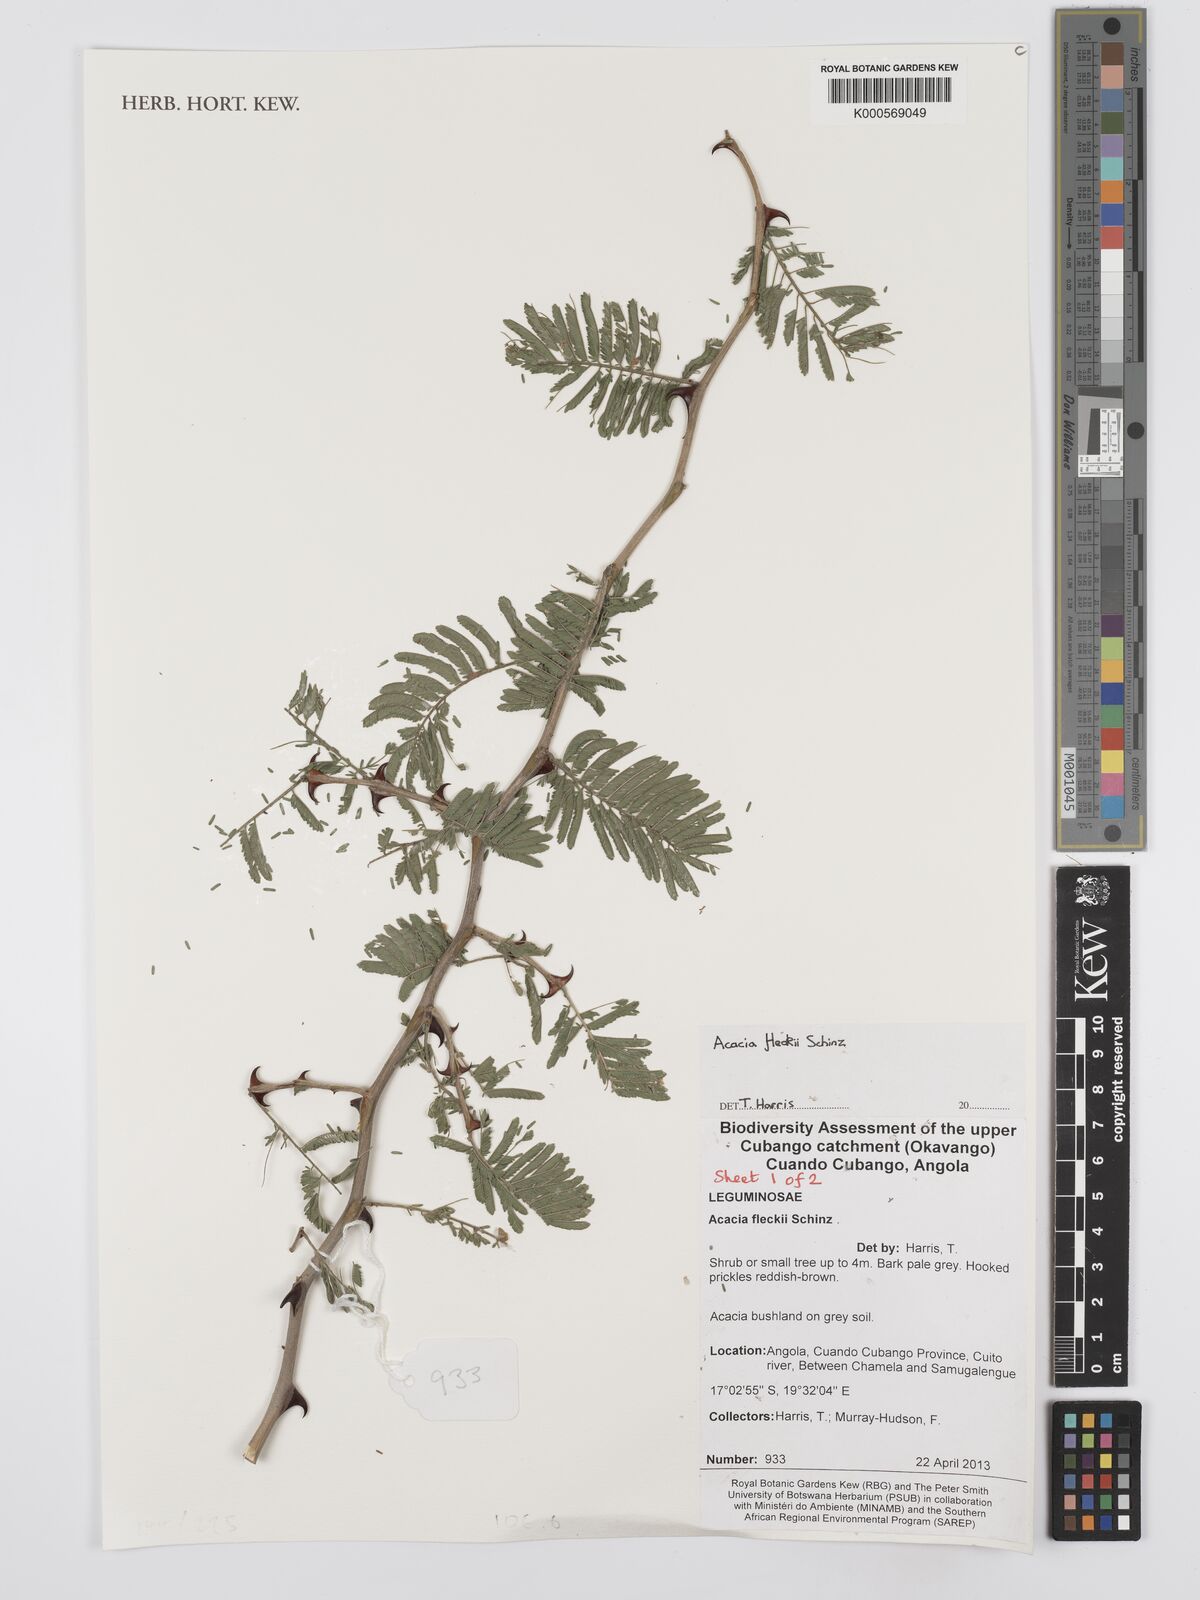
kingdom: Plantae
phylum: Tracheophyta
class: Magnoliopsida
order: Fabales
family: Fabaceae
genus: Vachellia
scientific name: Vachellia hockii
